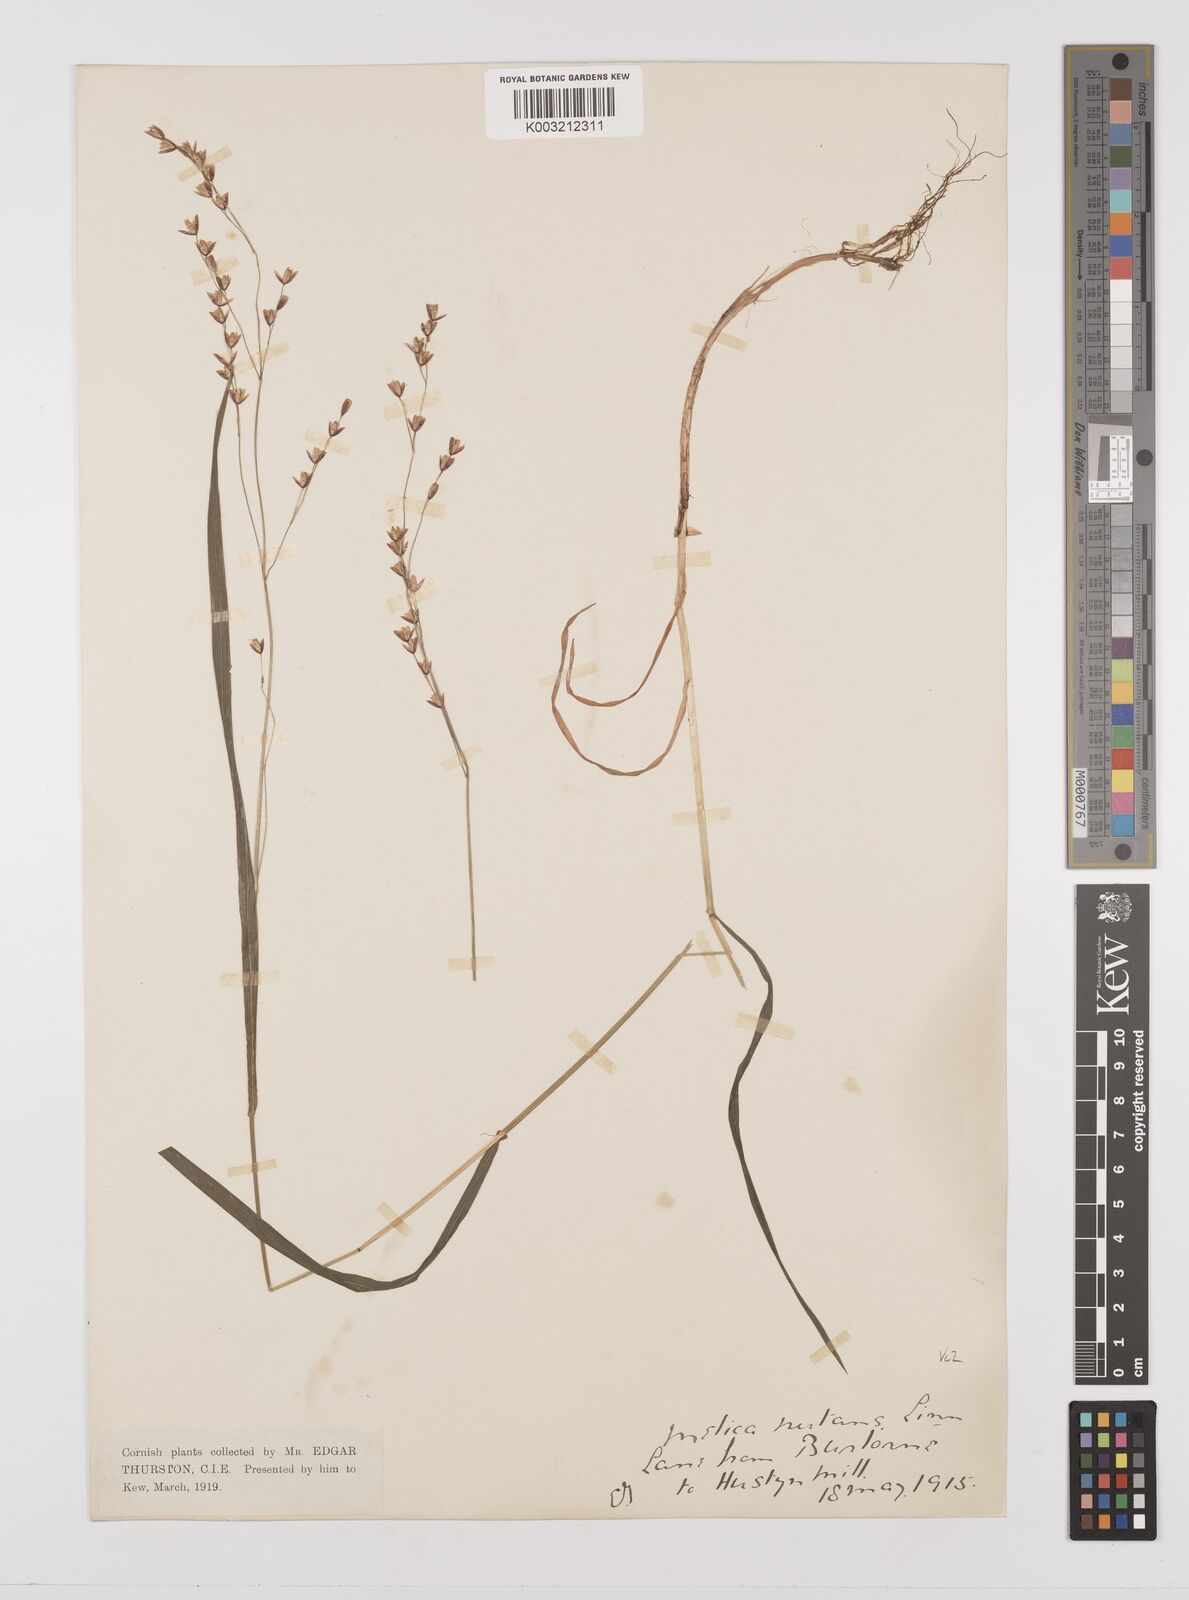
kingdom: Plantae
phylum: Tracheophyta
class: Liliopsida
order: Poales
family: Poaceae
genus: Melica
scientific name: Melica uniflora
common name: Wood melick
